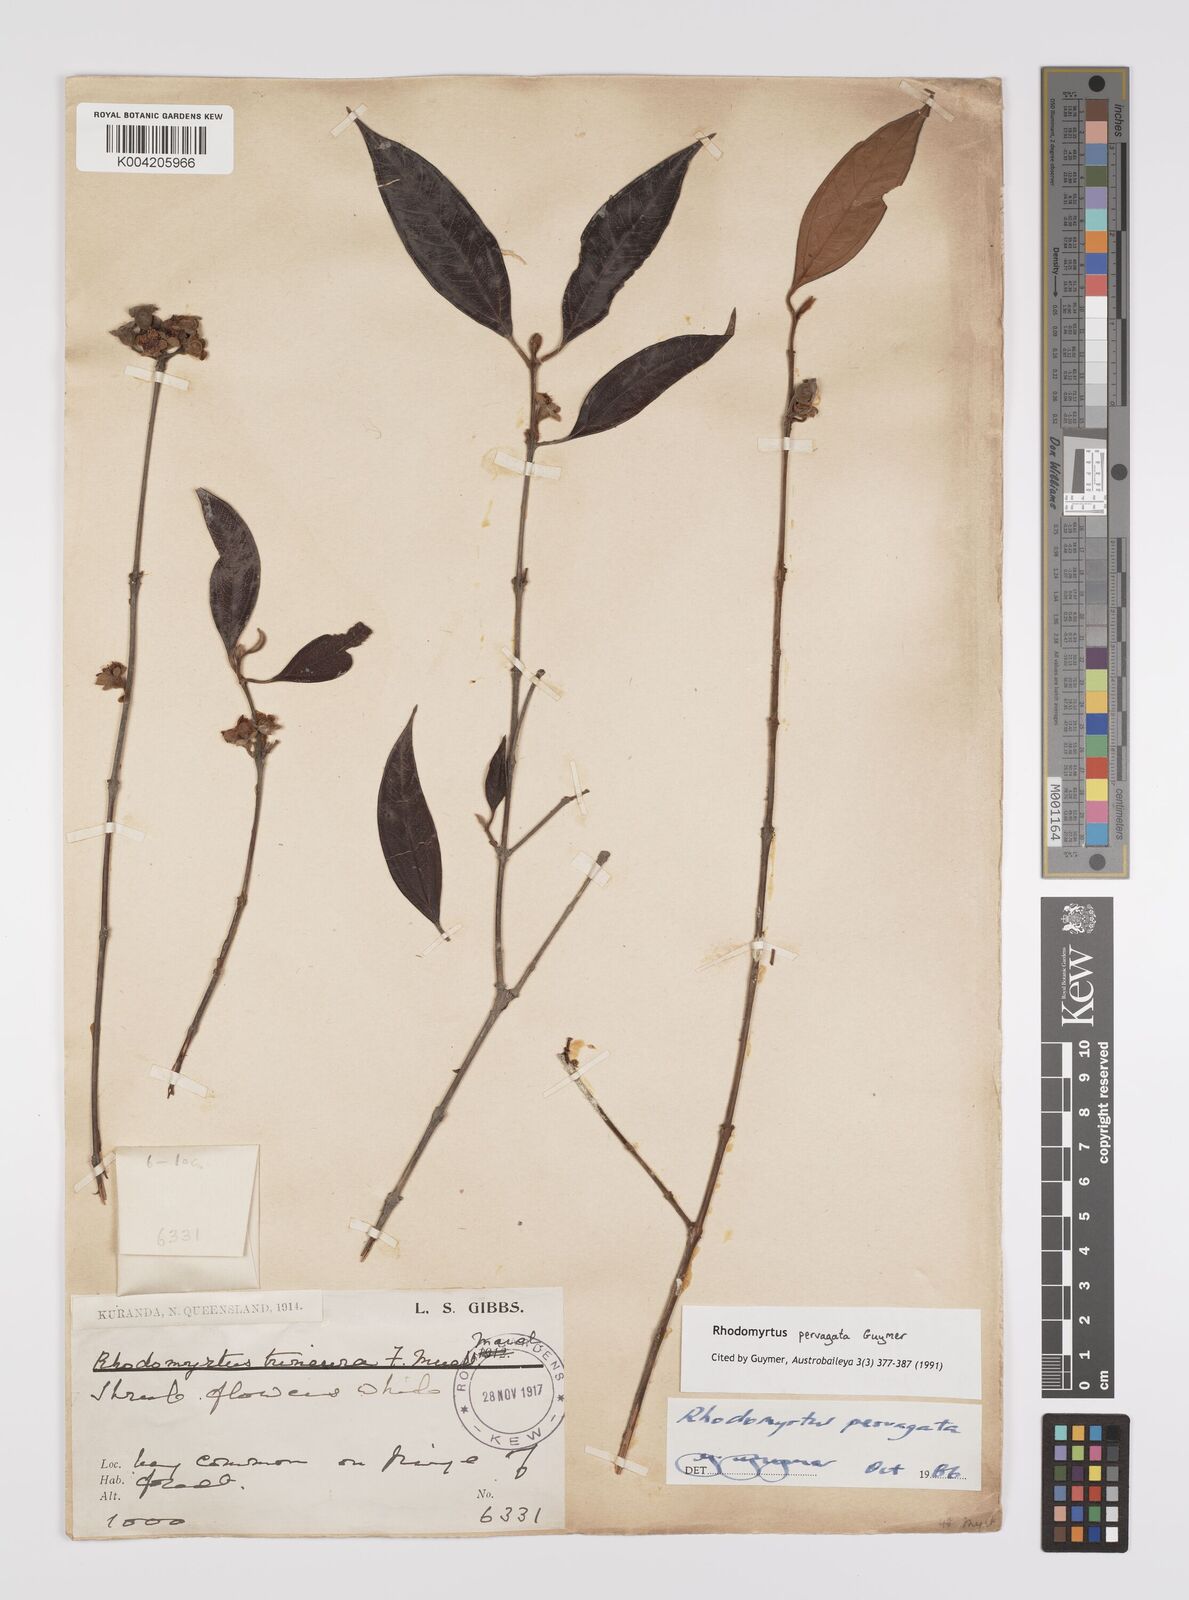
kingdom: Plantae
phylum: Tracheophyta
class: Magnoliopsida
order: Myrtales
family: Myrtaceae
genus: Rhodomyrtus
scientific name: Rhodomyrtus pervagata
